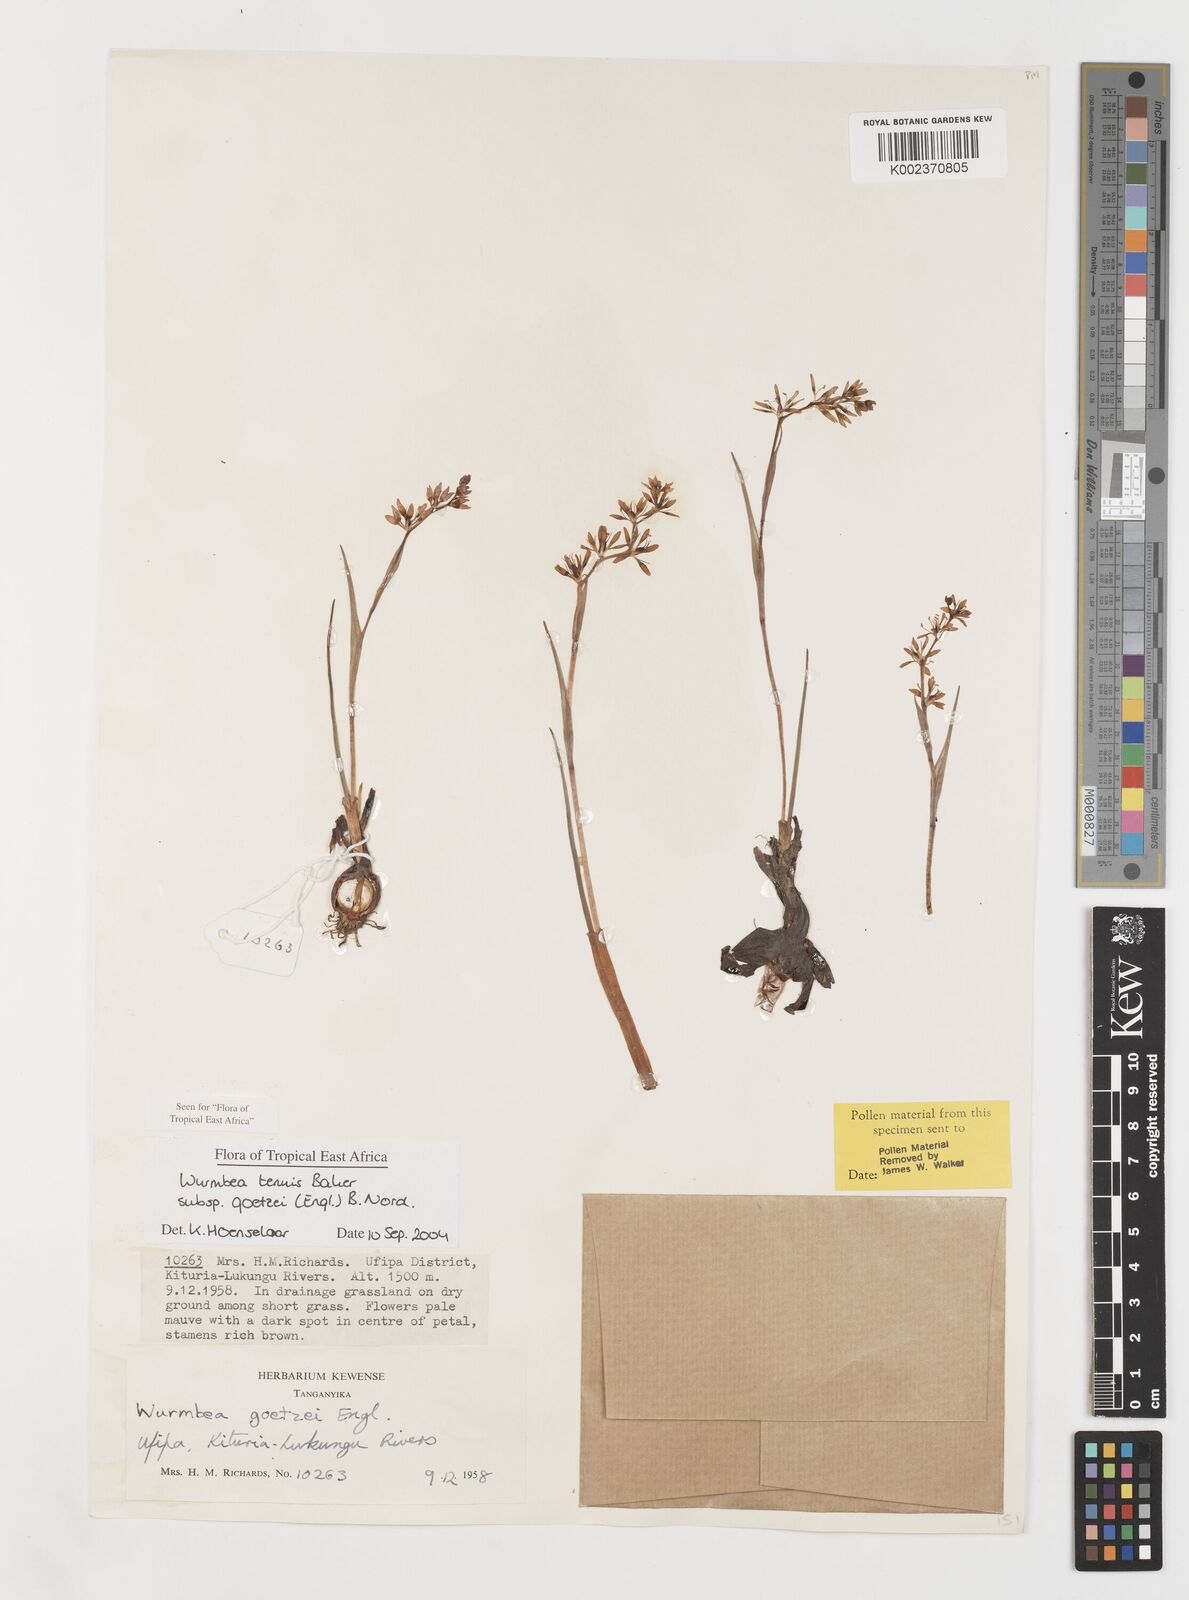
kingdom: Plantae
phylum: Tracheophyta
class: Liliopsida
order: Liliales
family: Colchicaceae
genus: Wurmbea
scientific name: Wurmbea tenuis
